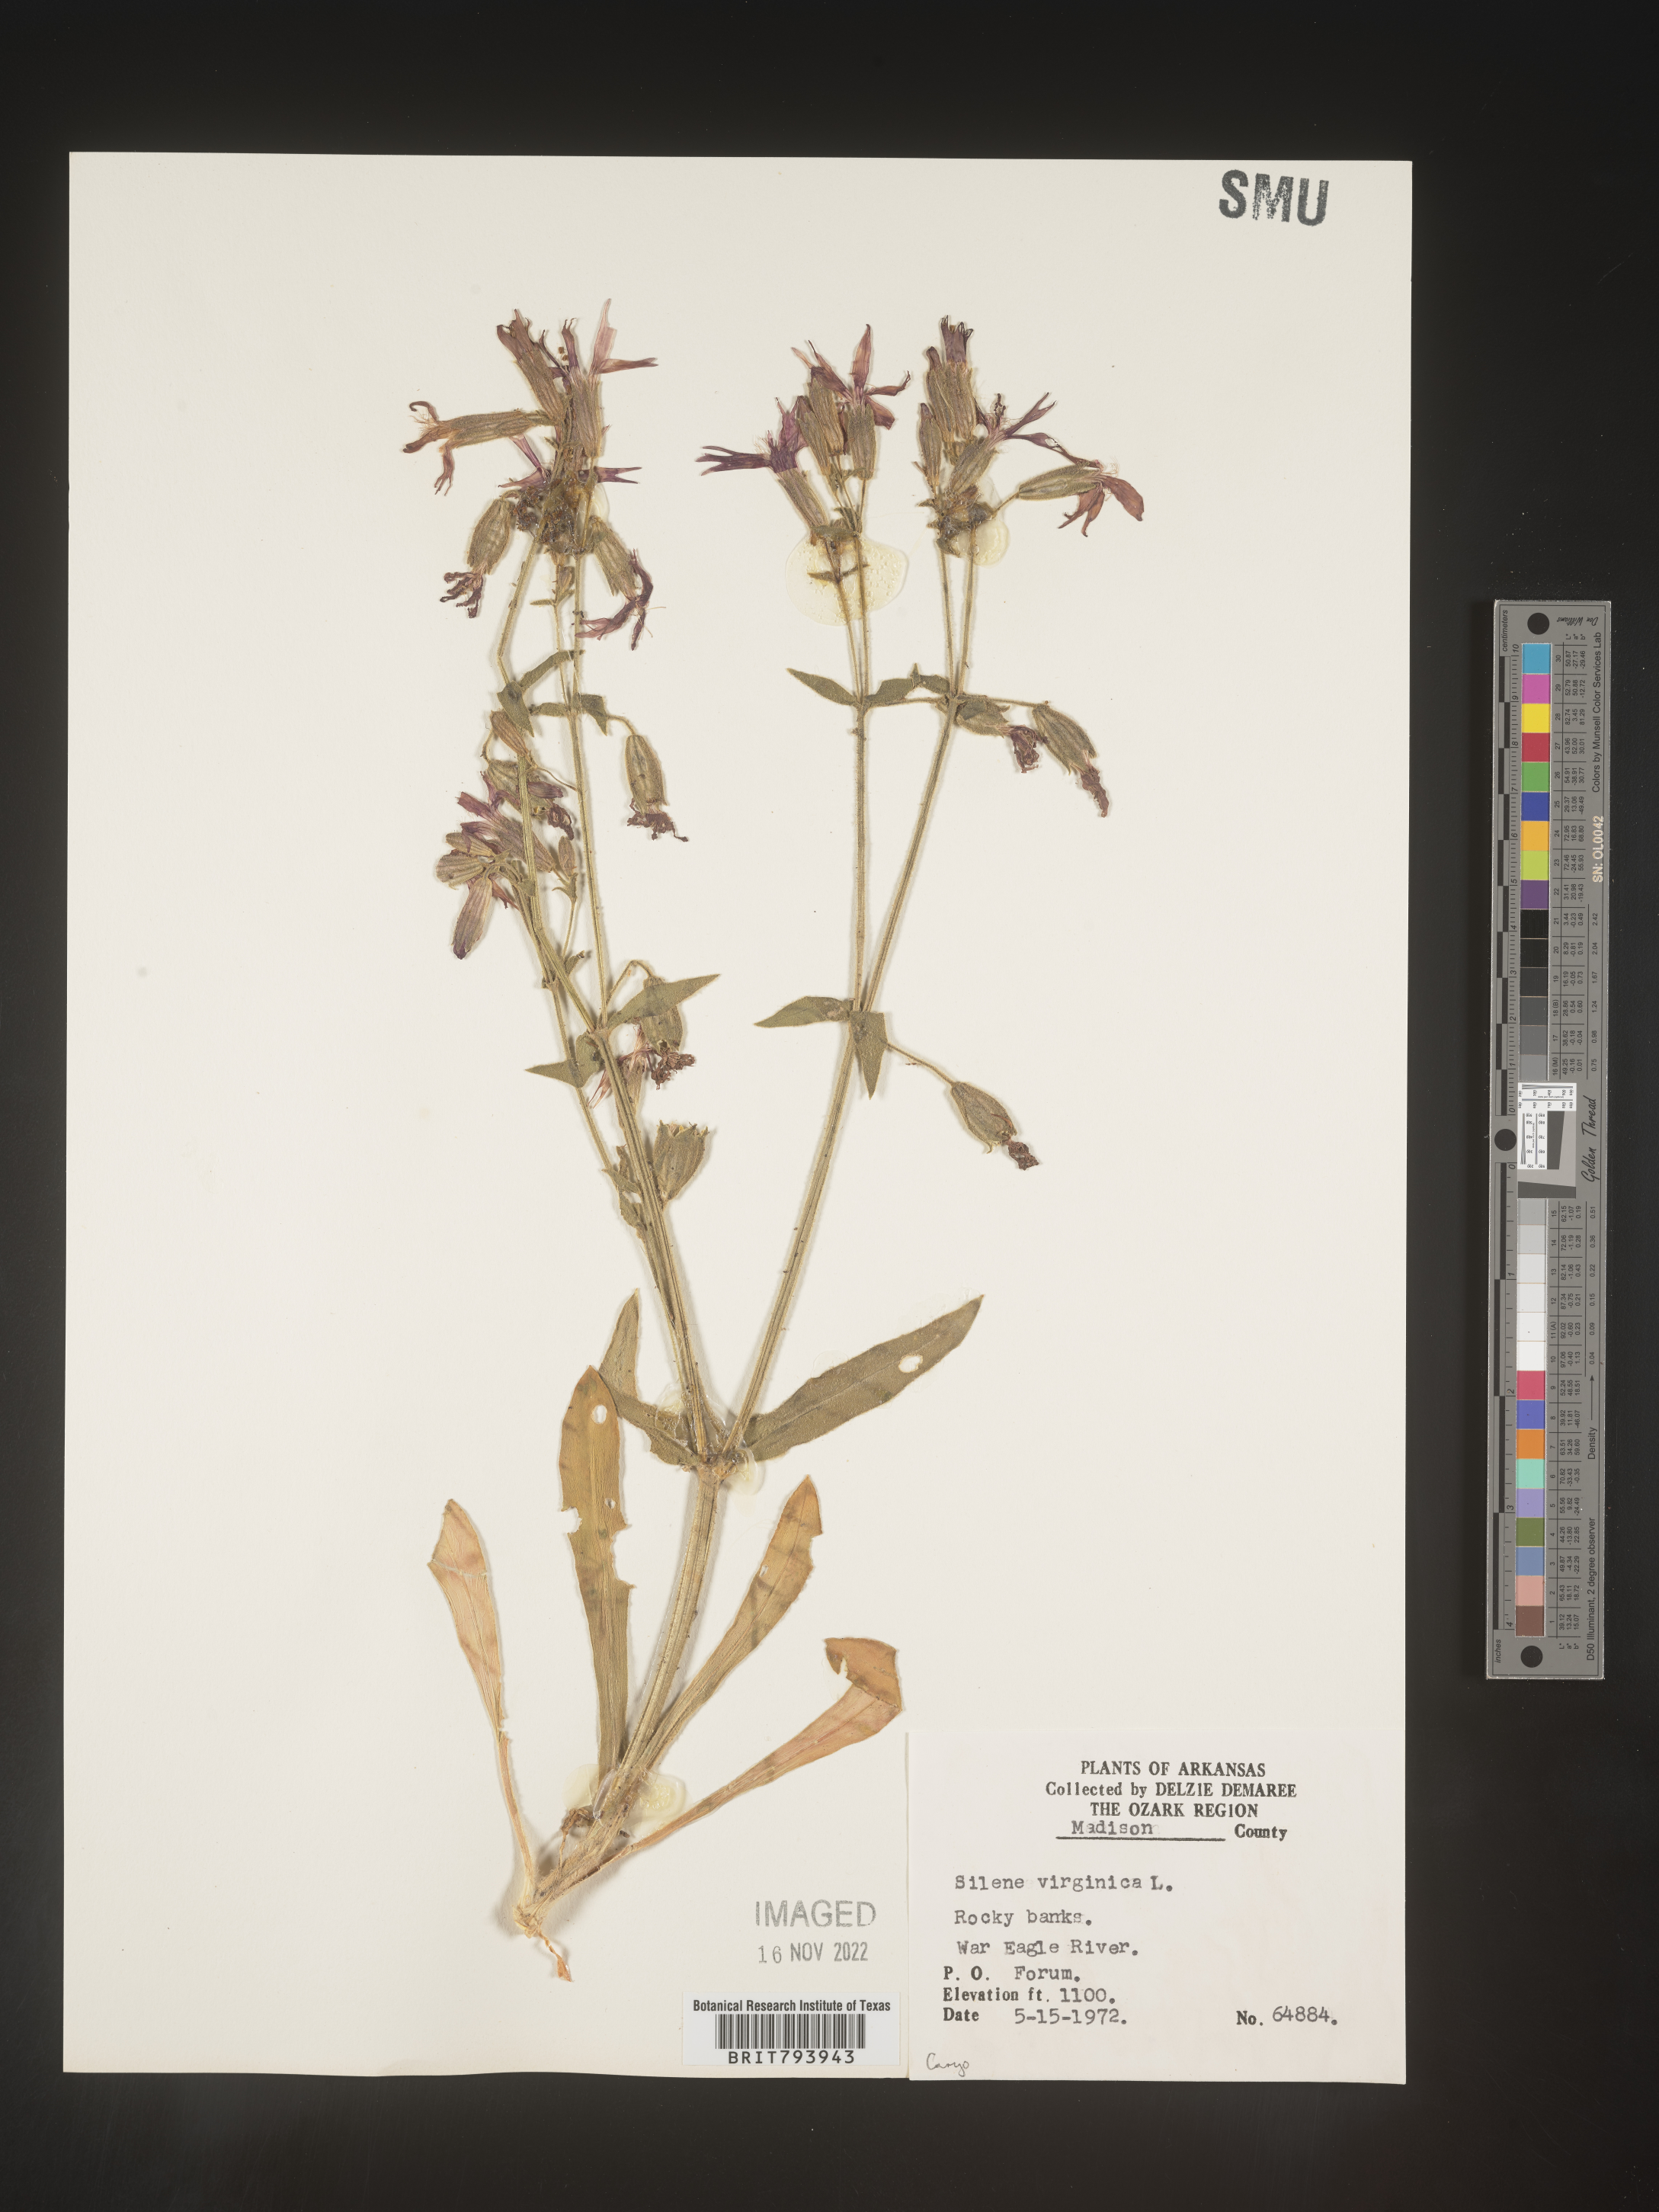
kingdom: Plantae
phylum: Tracheophyta
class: Magnoliopsida
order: Caryophyllales
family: Caryophyllaceae
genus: Silene
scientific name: Silene virginica
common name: Fire-pink
